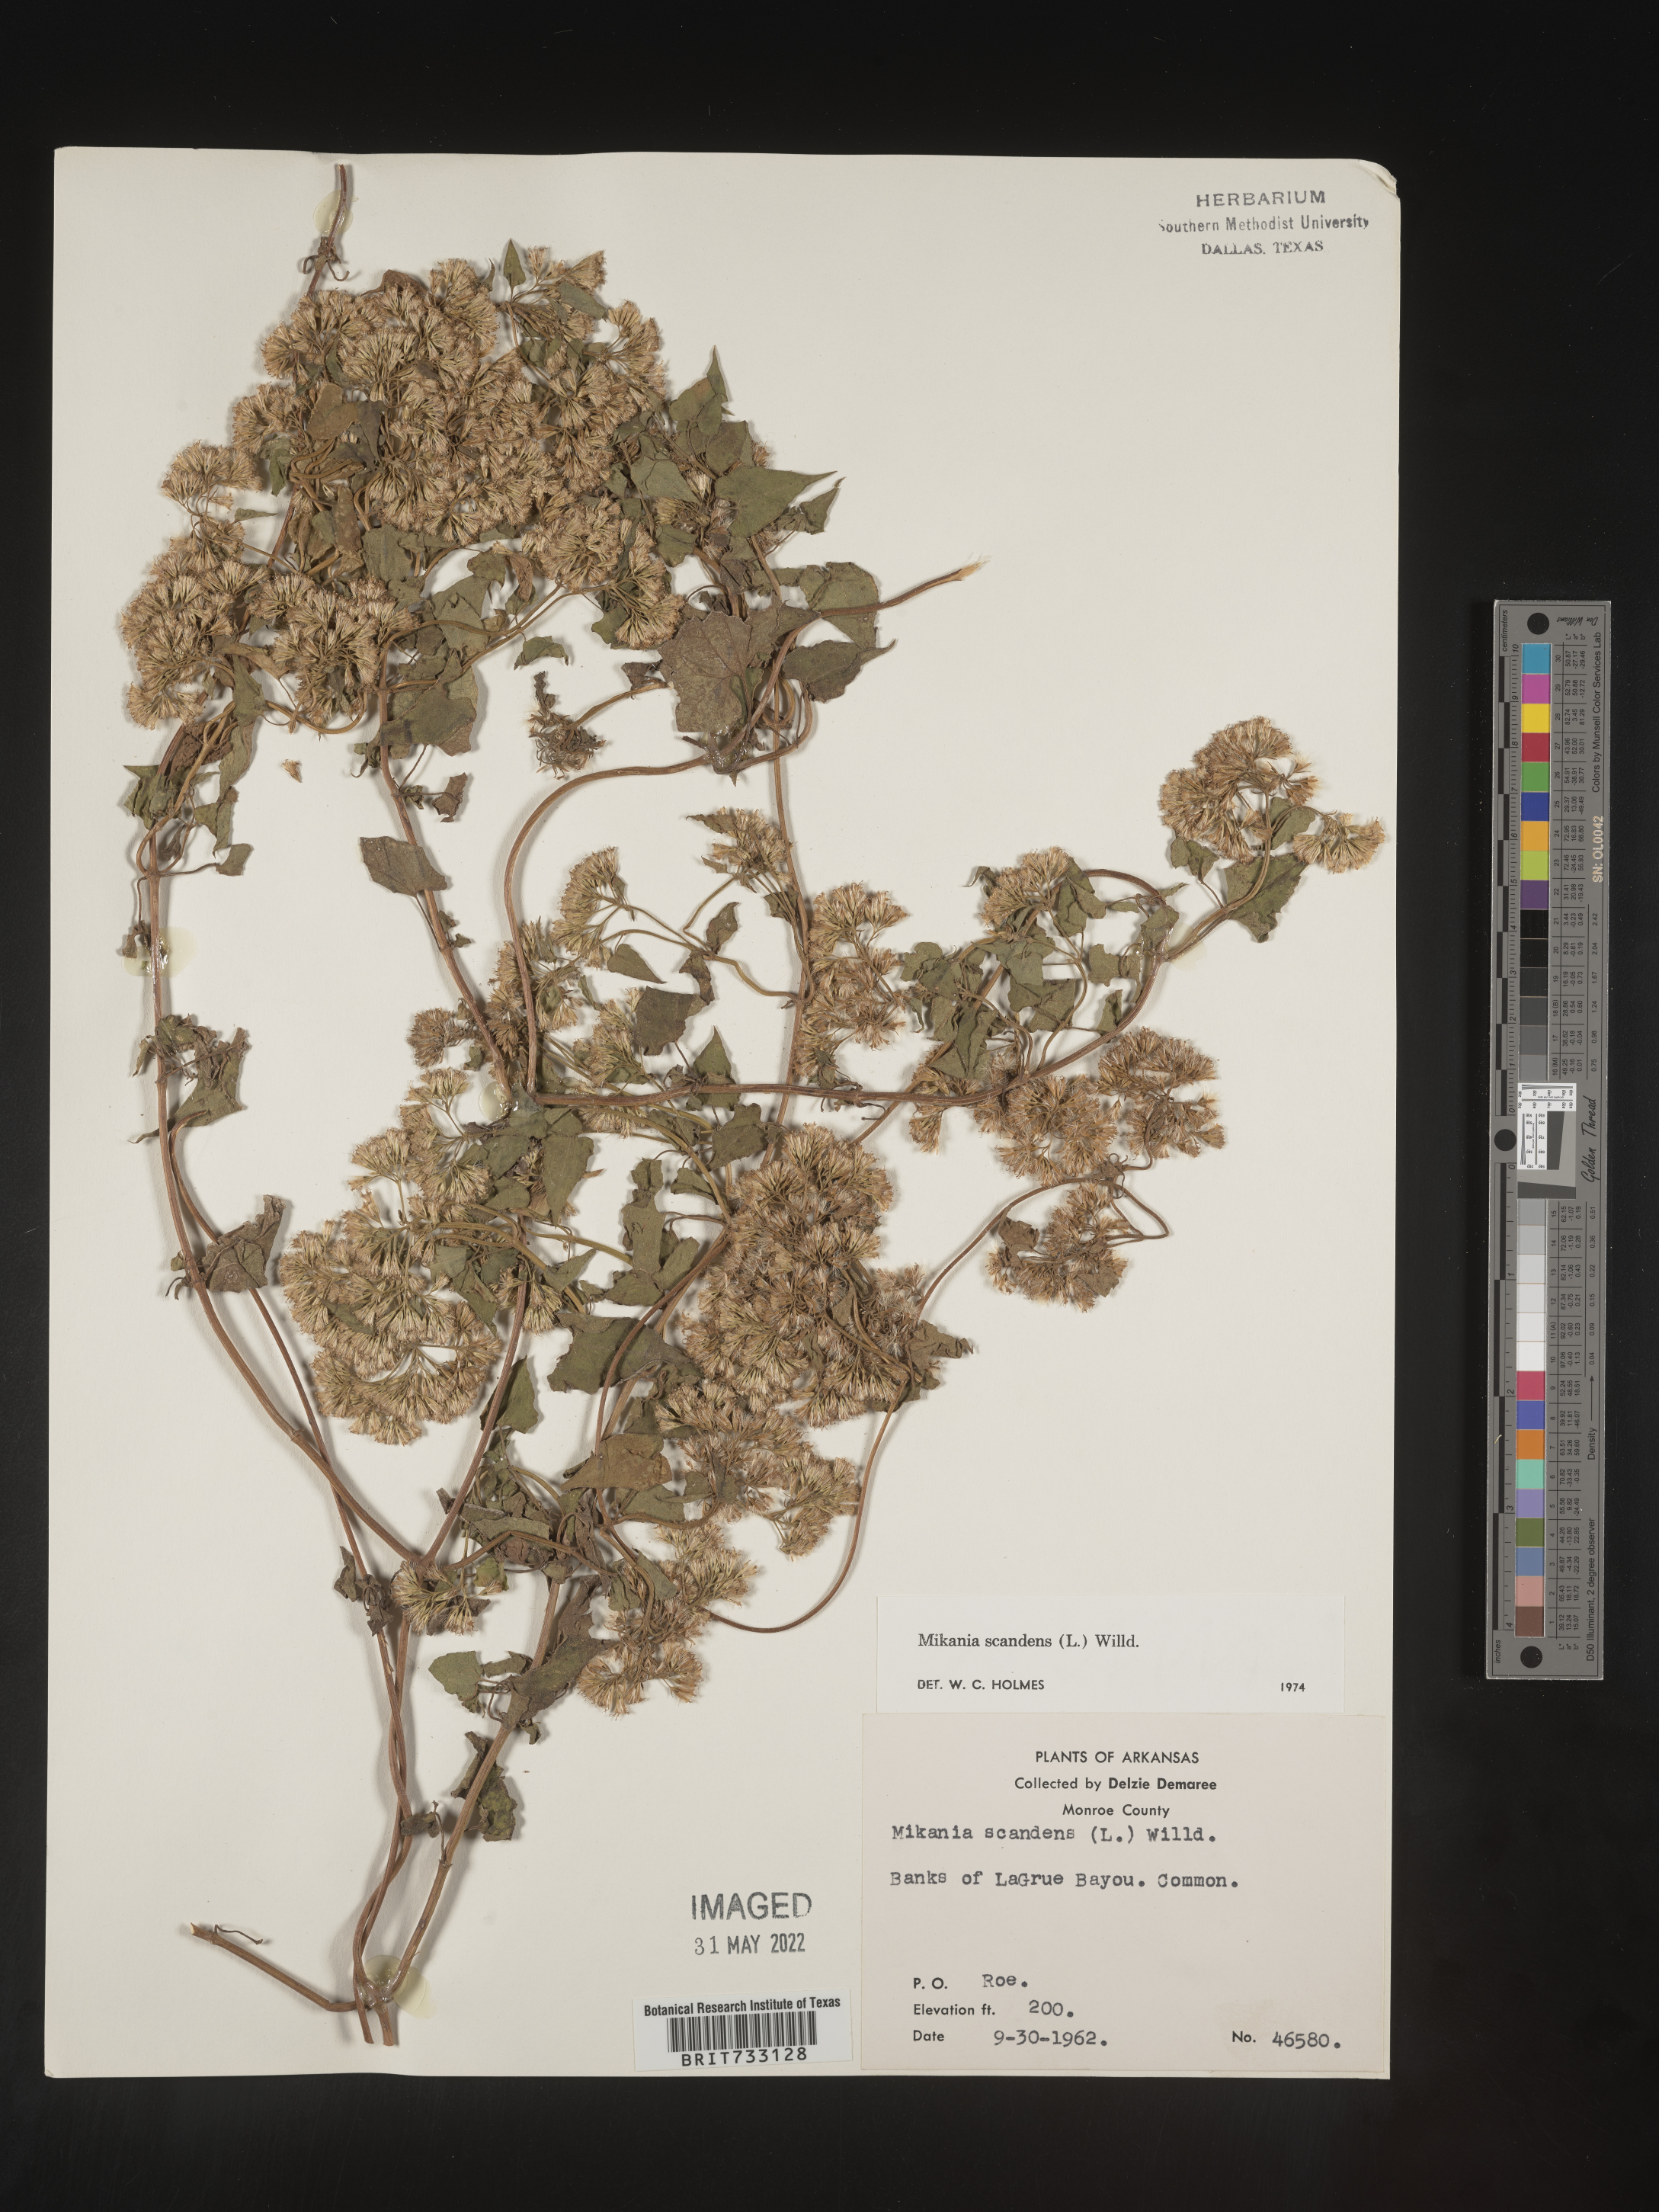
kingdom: Plantae
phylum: Tracheophyta
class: Magnoliopsida
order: Asterales
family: Asteraceae
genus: Mikania
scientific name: Mikania scandens
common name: Climbing hempvine
